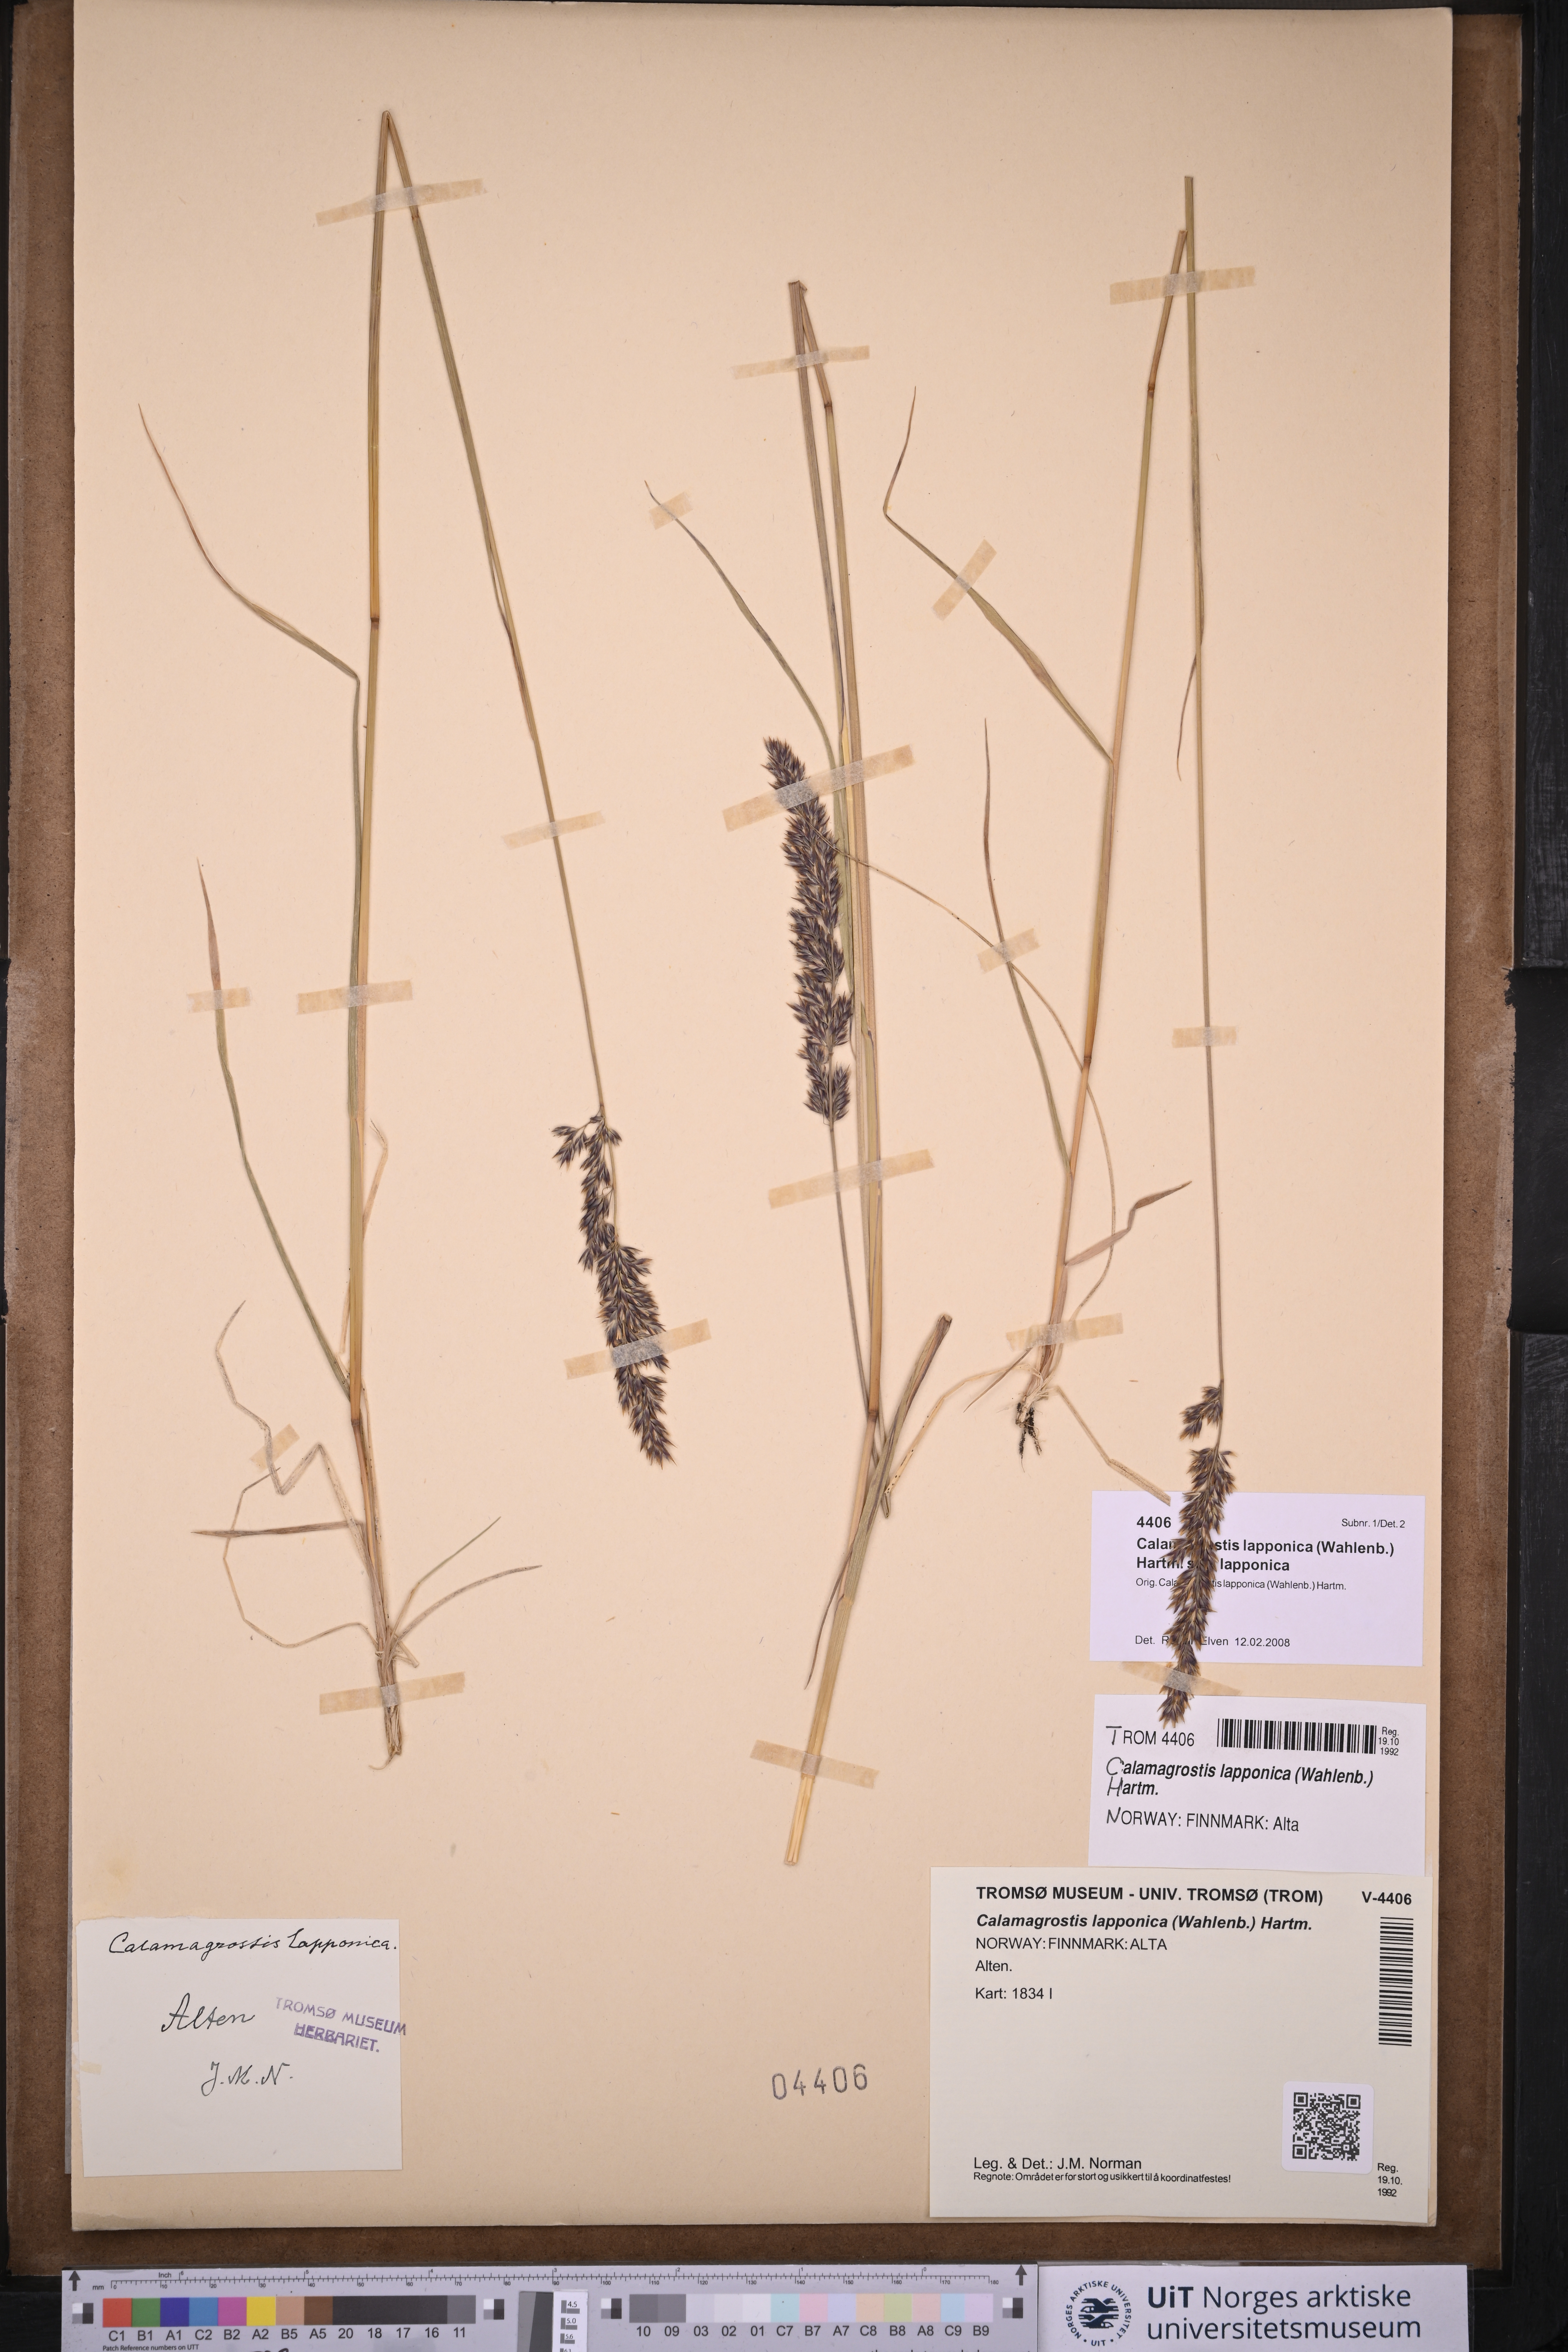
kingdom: Plantae
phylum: Tracheophyta
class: Liliopsida
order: Poales
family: Poaceae
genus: Calamagrostis
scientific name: Calamagrostis lapponica
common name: Lapland reedgrass
